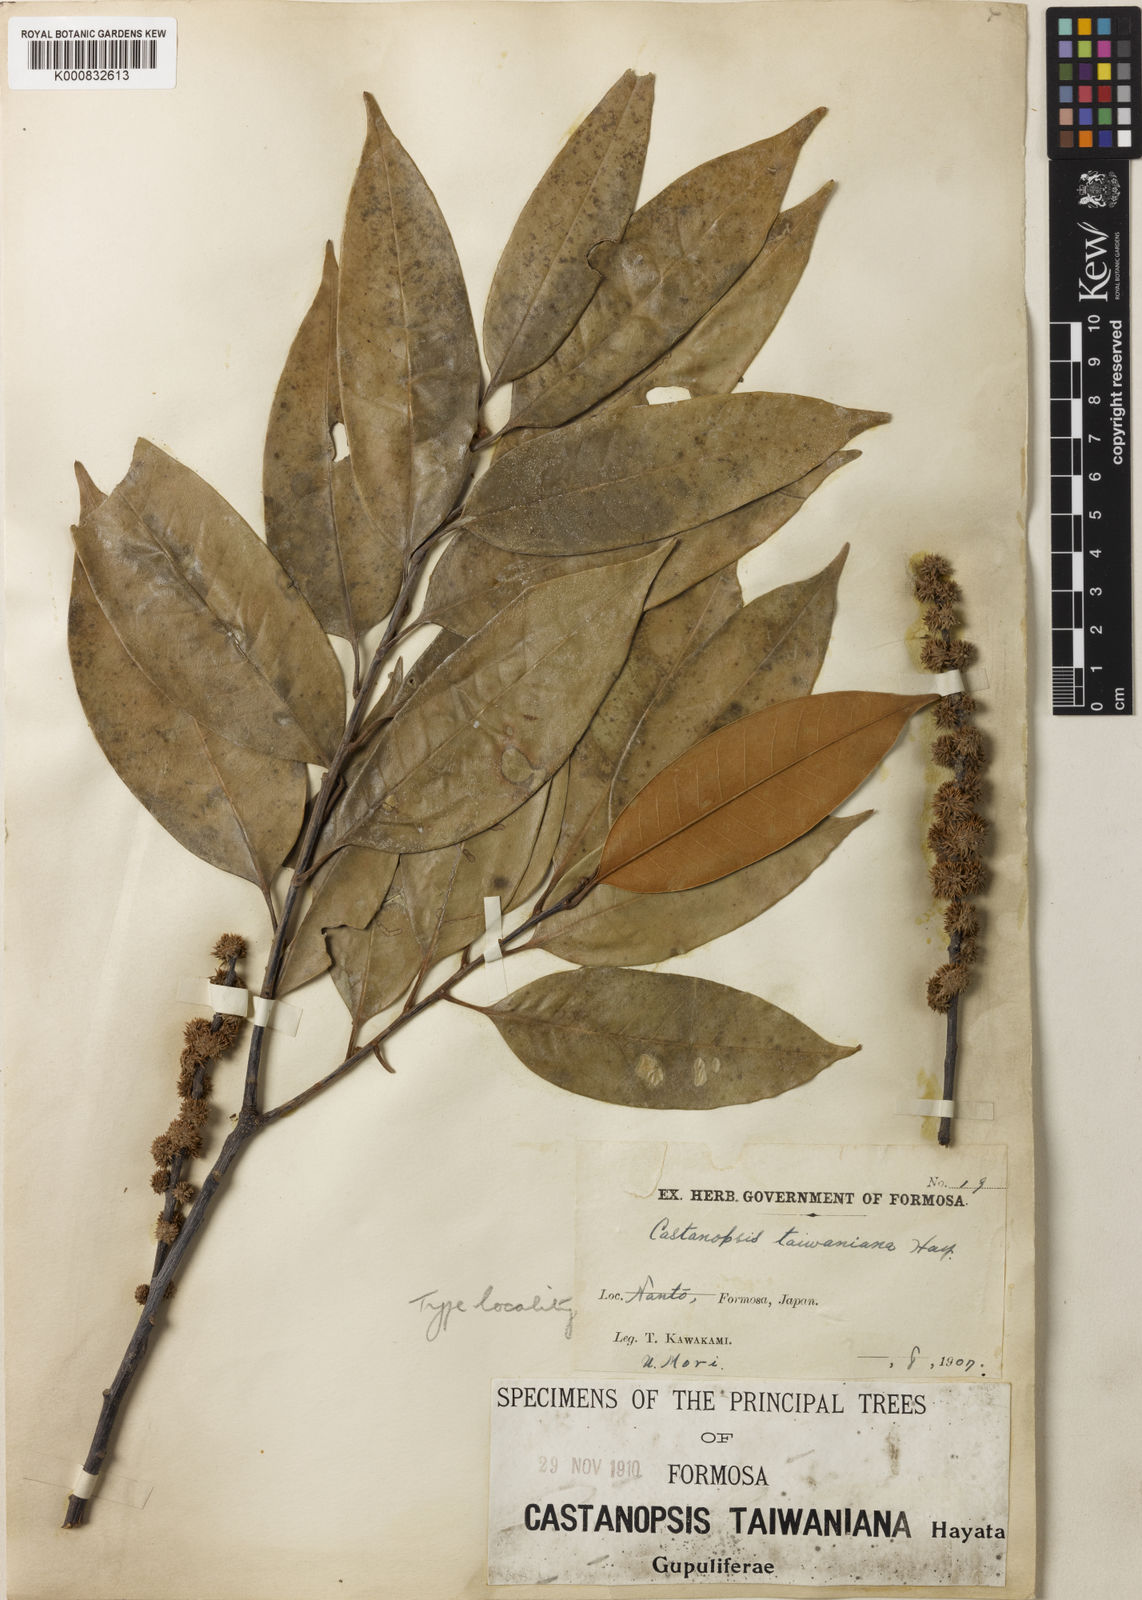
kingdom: Plantae
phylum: Tracheophyta
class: Magnoliopsida
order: Fagales
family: Fagaceae
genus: Castanopsis
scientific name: Castanopsis fargesii
